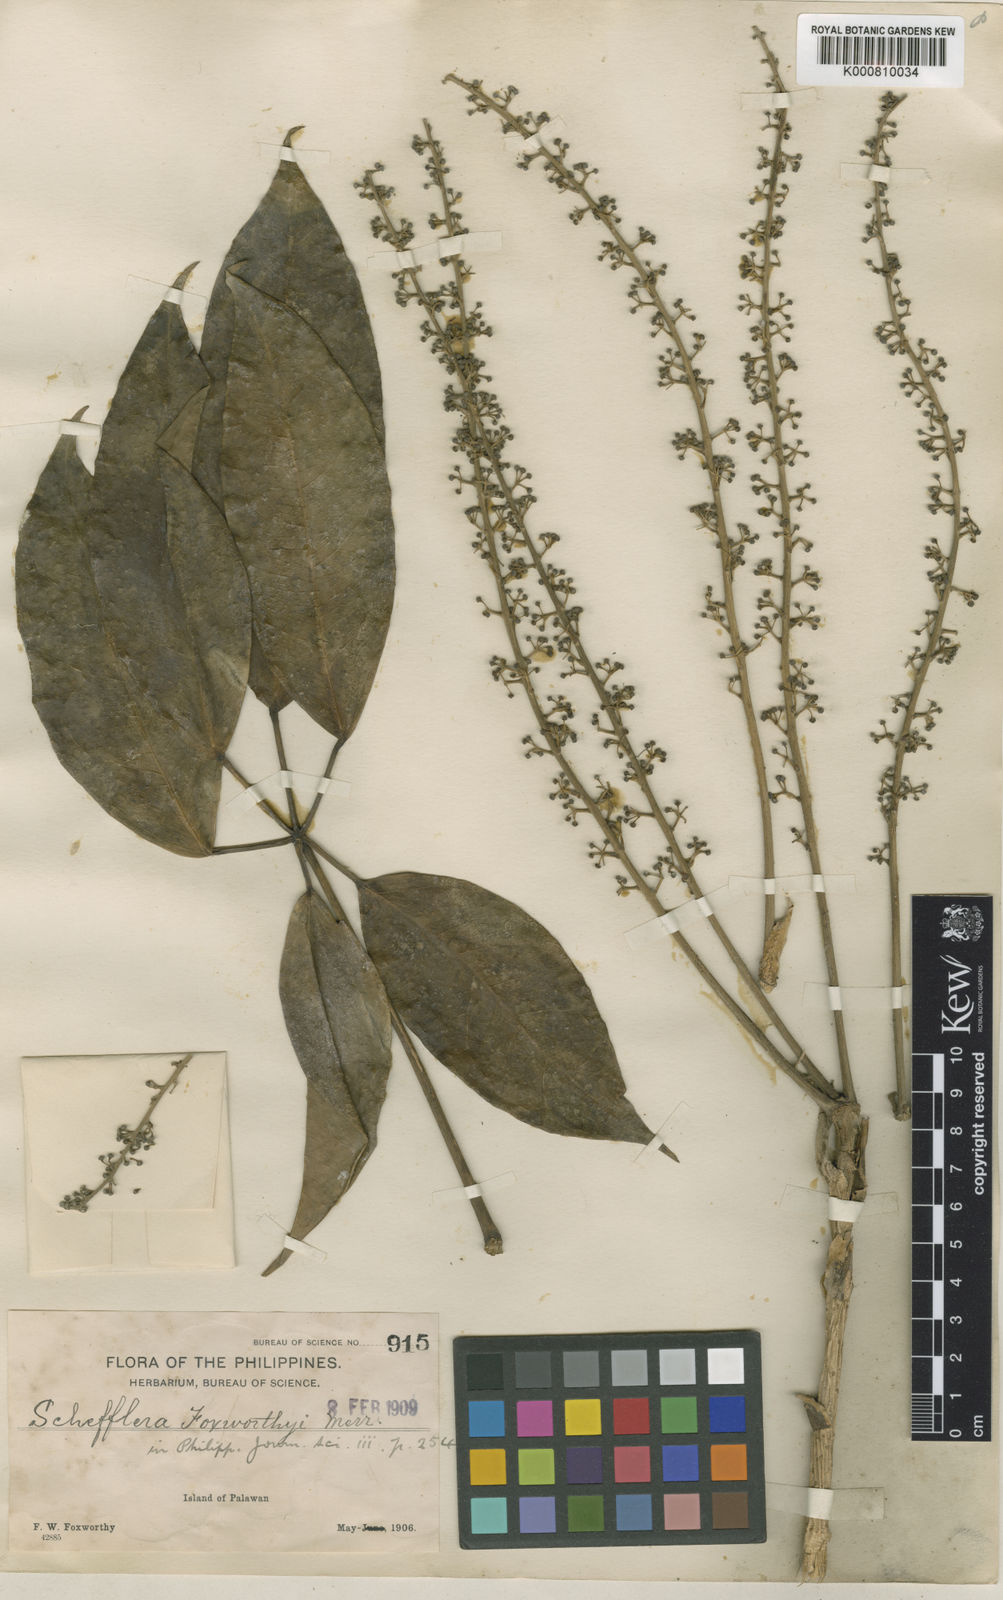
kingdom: Plantae
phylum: Tracheophyta
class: Magnoliopsida
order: Apiales
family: Araliaceae
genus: Heptapleurum
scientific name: Heptapleurum foxworthyi
